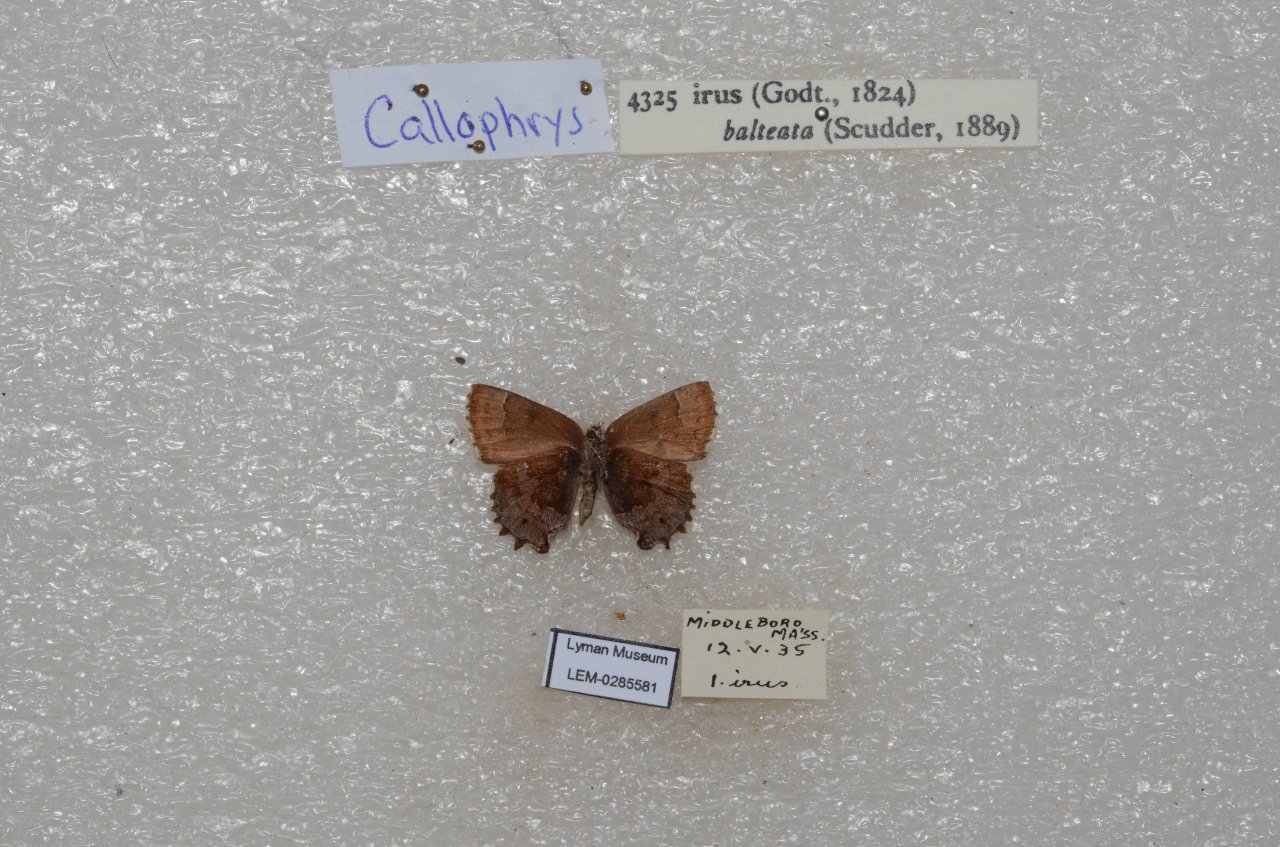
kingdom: Animalia
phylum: Arthropoda
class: Insecta
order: Lepidoptera
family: Lycaenidae
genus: Thecla
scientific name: Thecla irus
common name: Frosted Elfin
